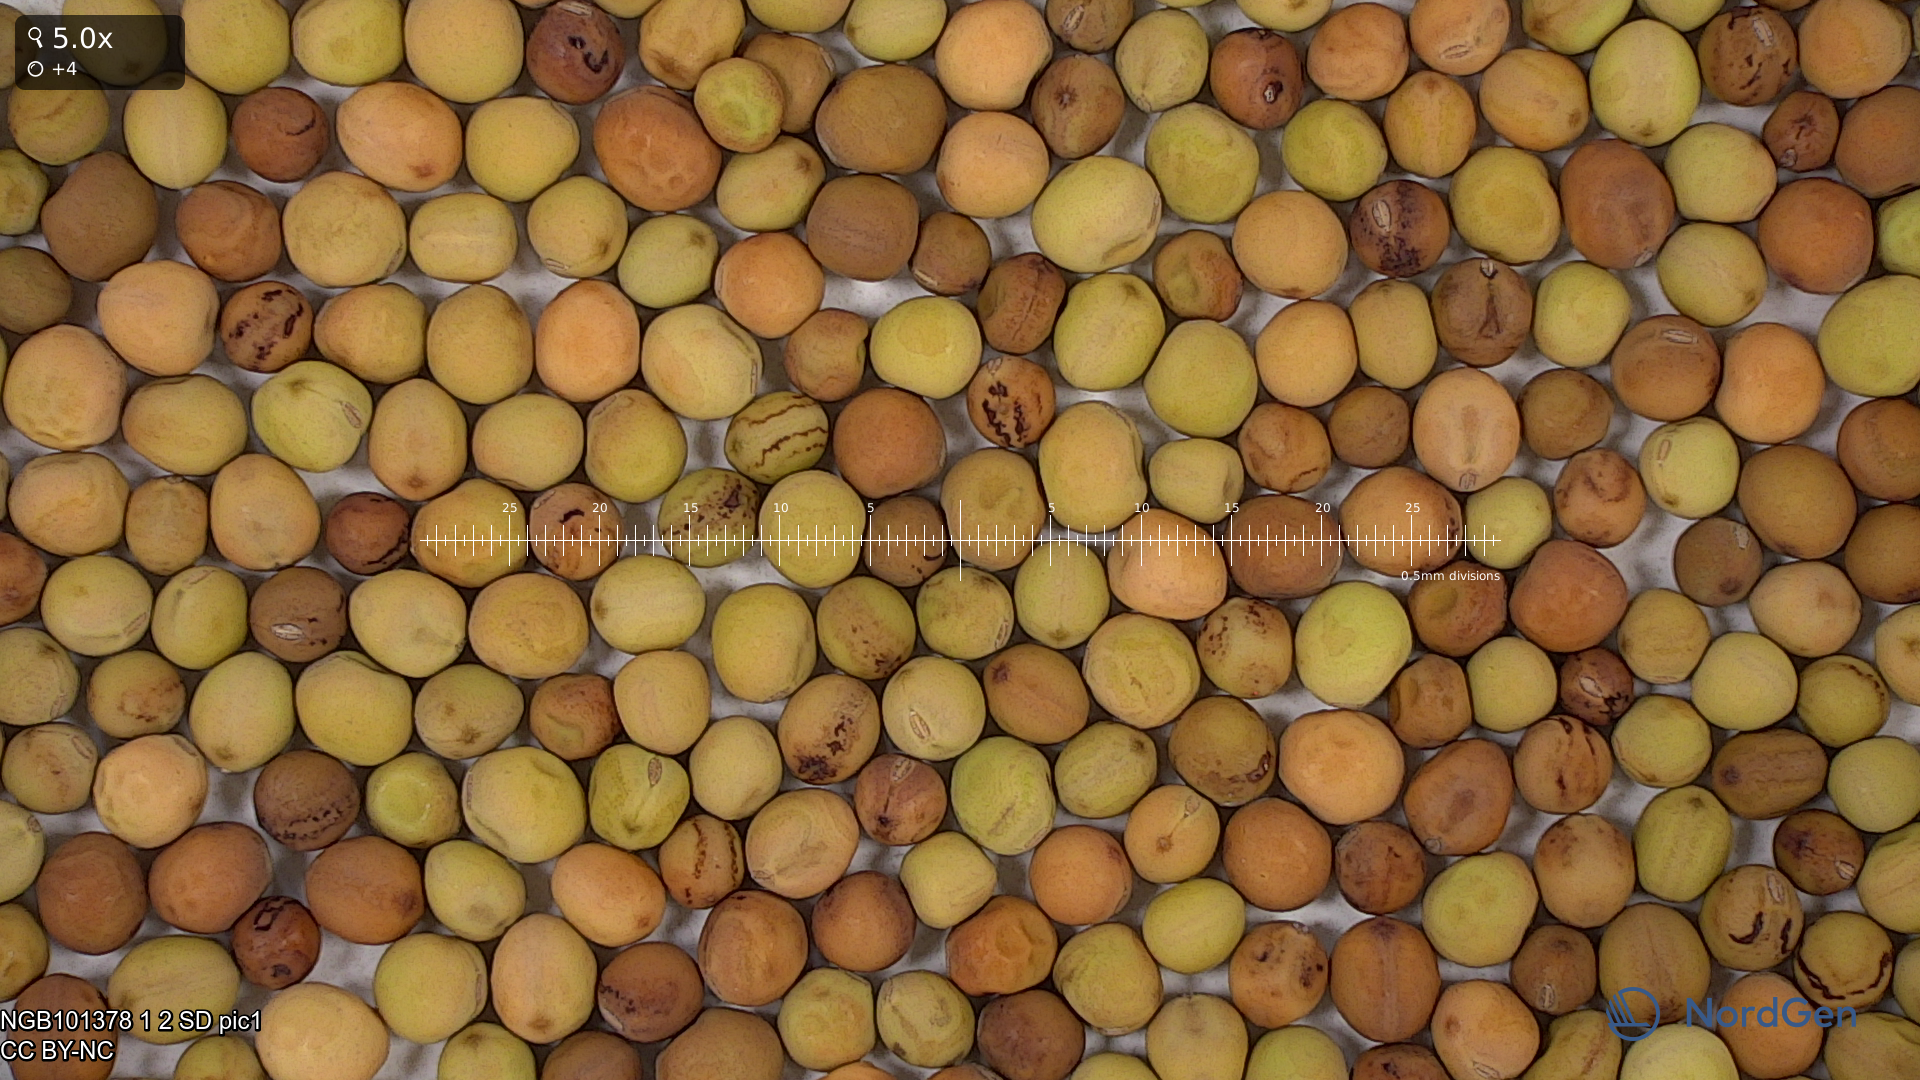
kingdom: Plantae
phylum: Tracheophyta
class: Magnoliopsida
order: Fabales
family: Fabaceae
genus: Lathyrus
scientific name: Lathyrus oleraceus
